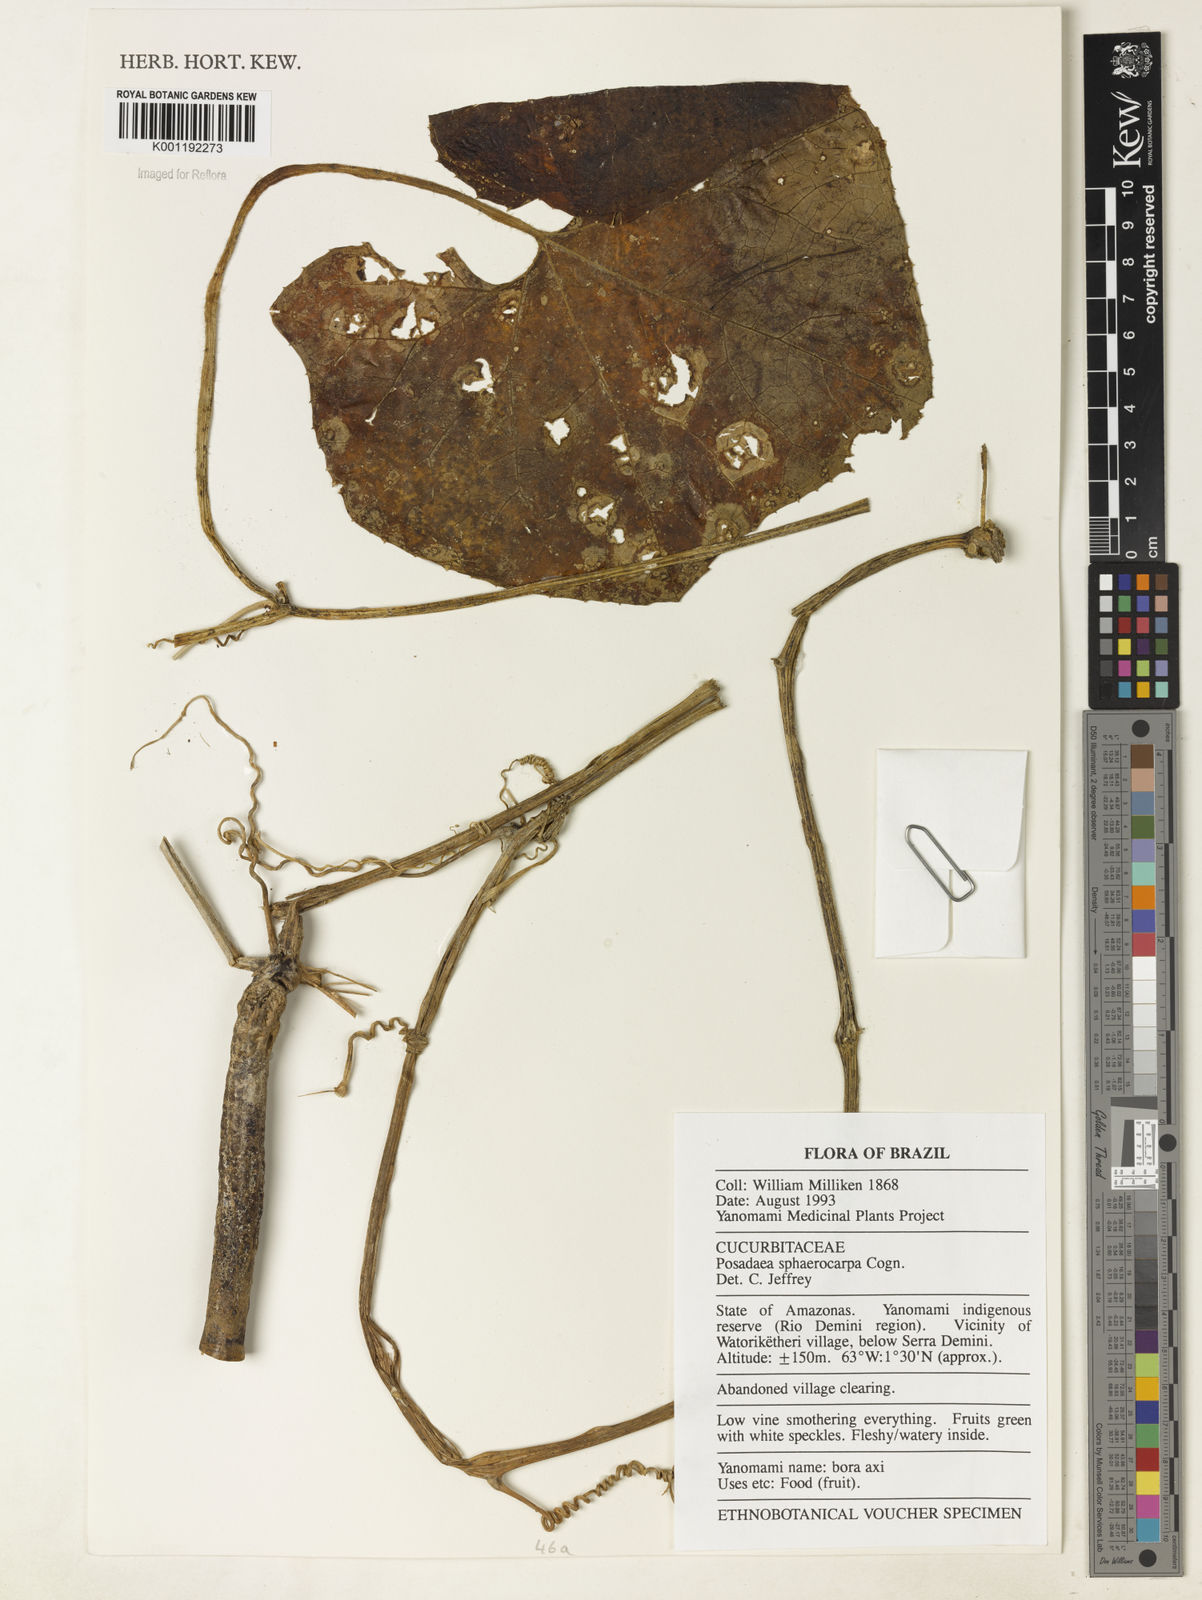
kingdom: Plantae
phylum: Tracheophyta
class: Magnoliopsida
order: Cucurbitales
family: Cucurbitaceae
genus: Melothria
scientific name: Melothria sphaerocarpa
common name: Egusi-itoo
